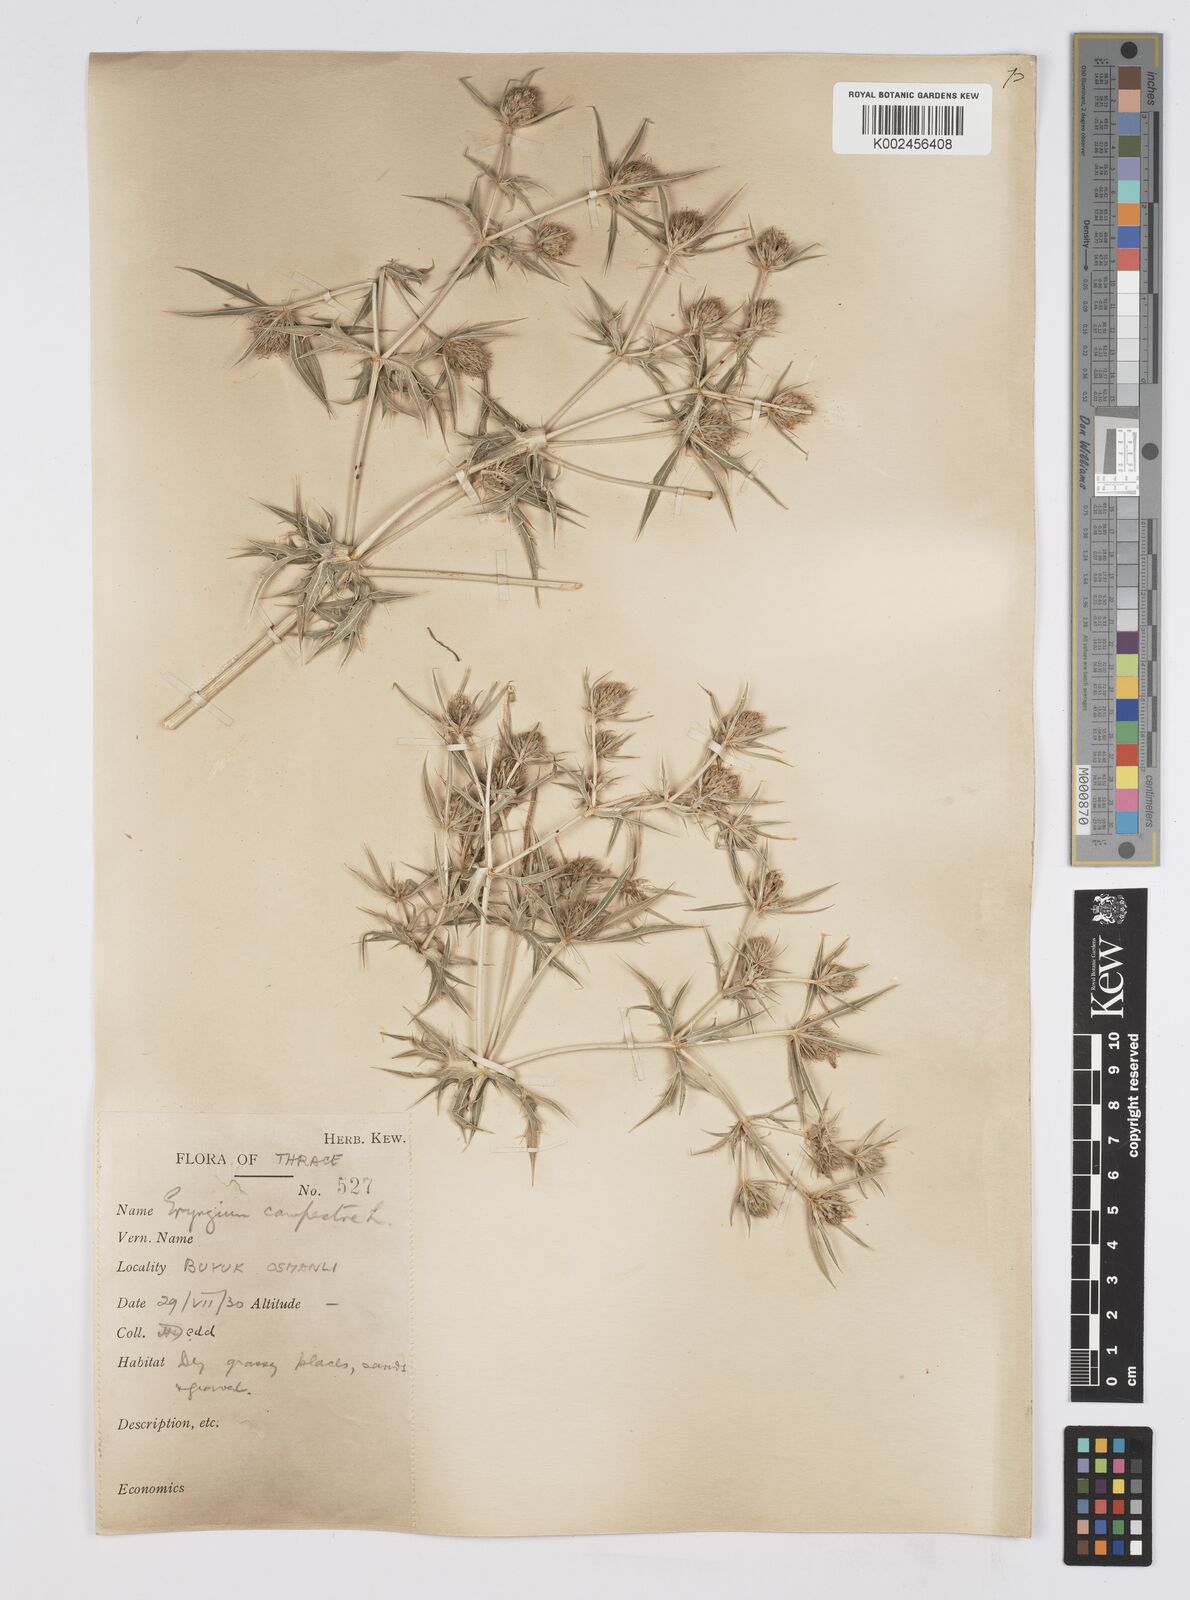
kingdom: Plantae
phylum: Tracheophyta
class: Magnoliopsida
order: Apiales
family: Apiaceae
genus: Eryngium
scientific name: Eryngium campestre
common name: Field eryngo
